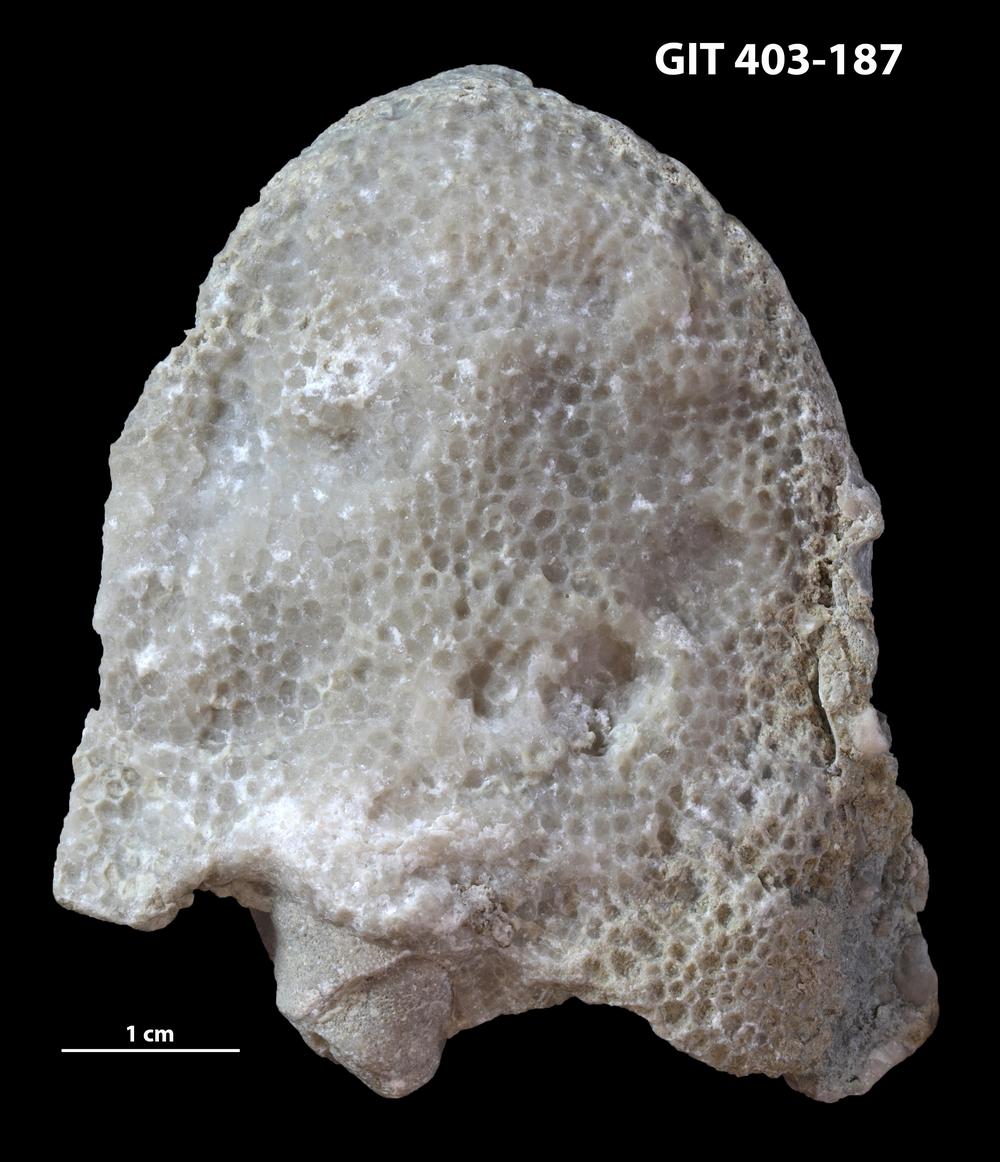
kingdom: Animalia
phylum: Bryozoa
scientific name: Bryozoa
